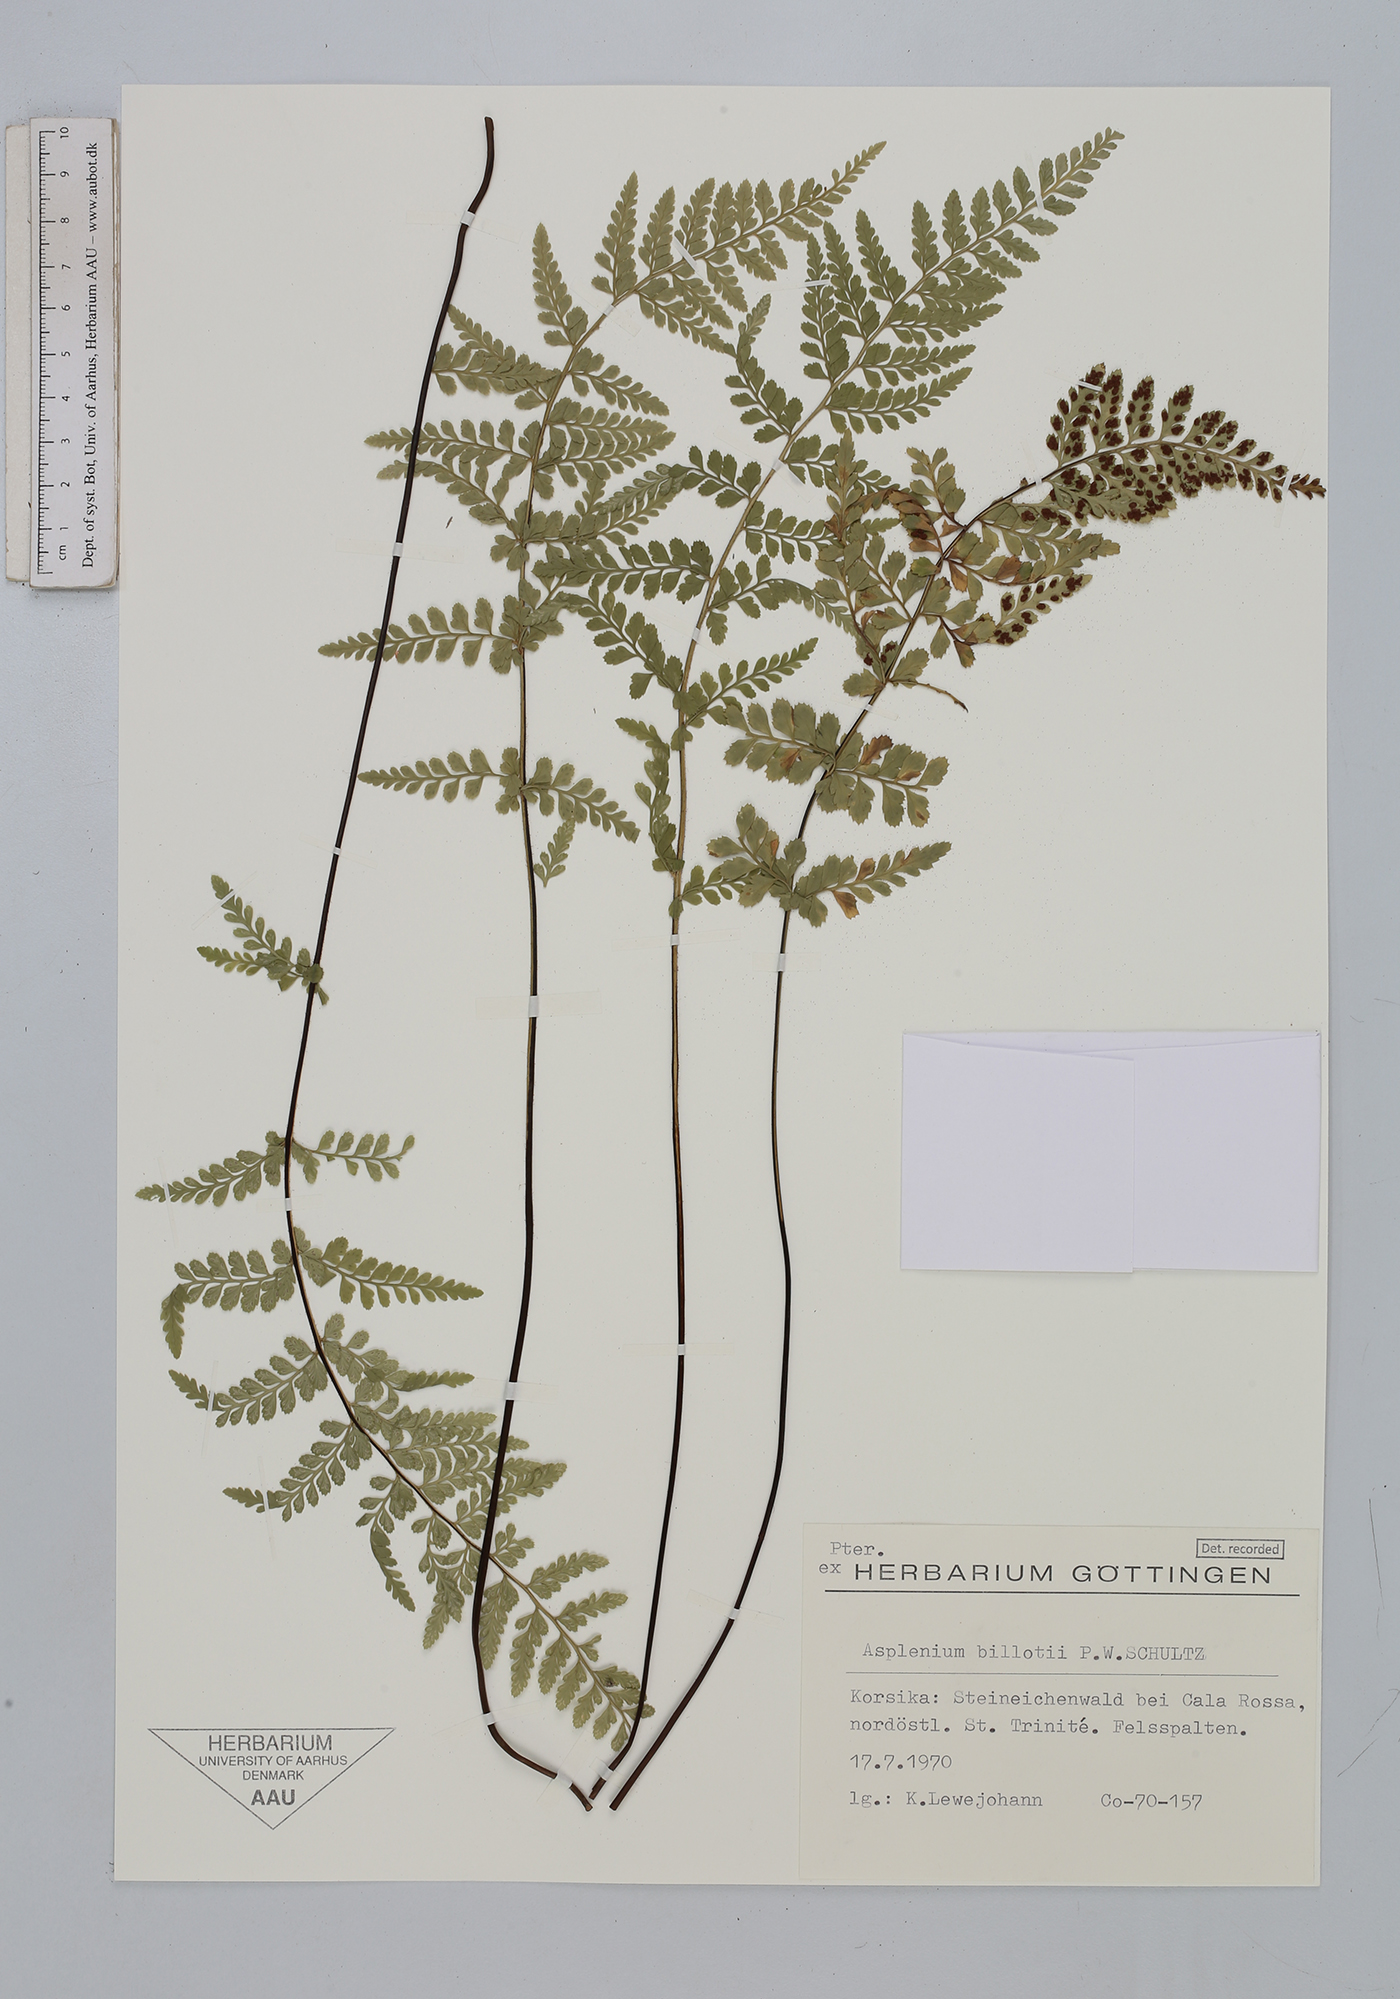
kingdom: Plantae
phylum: Tracheophyta
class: Polypodiopsida
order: Polypodiales
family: Aspleniaceae
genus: Asplenium
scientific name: Asplenium obovatum
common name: Lanceolate spleenwort
